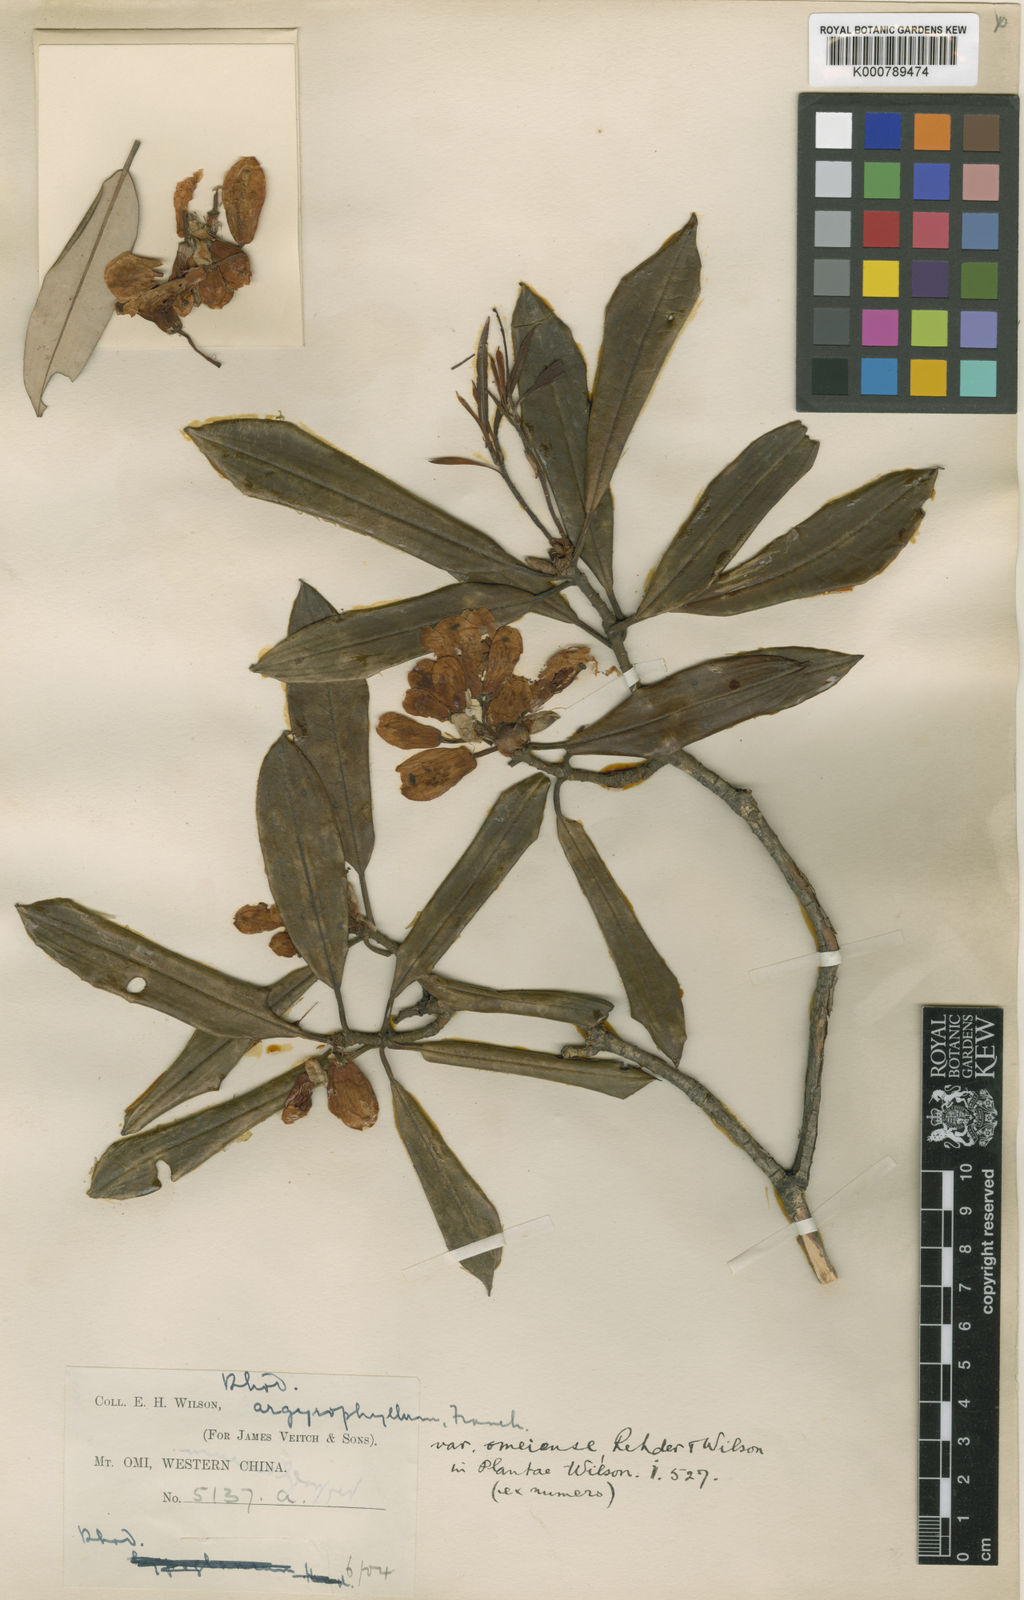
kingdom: Plantae
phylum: Tracheophyta
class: Magnoliopsida
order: Ericales
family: Ericaceae
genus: Rhododendron
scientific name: Rhododendron
